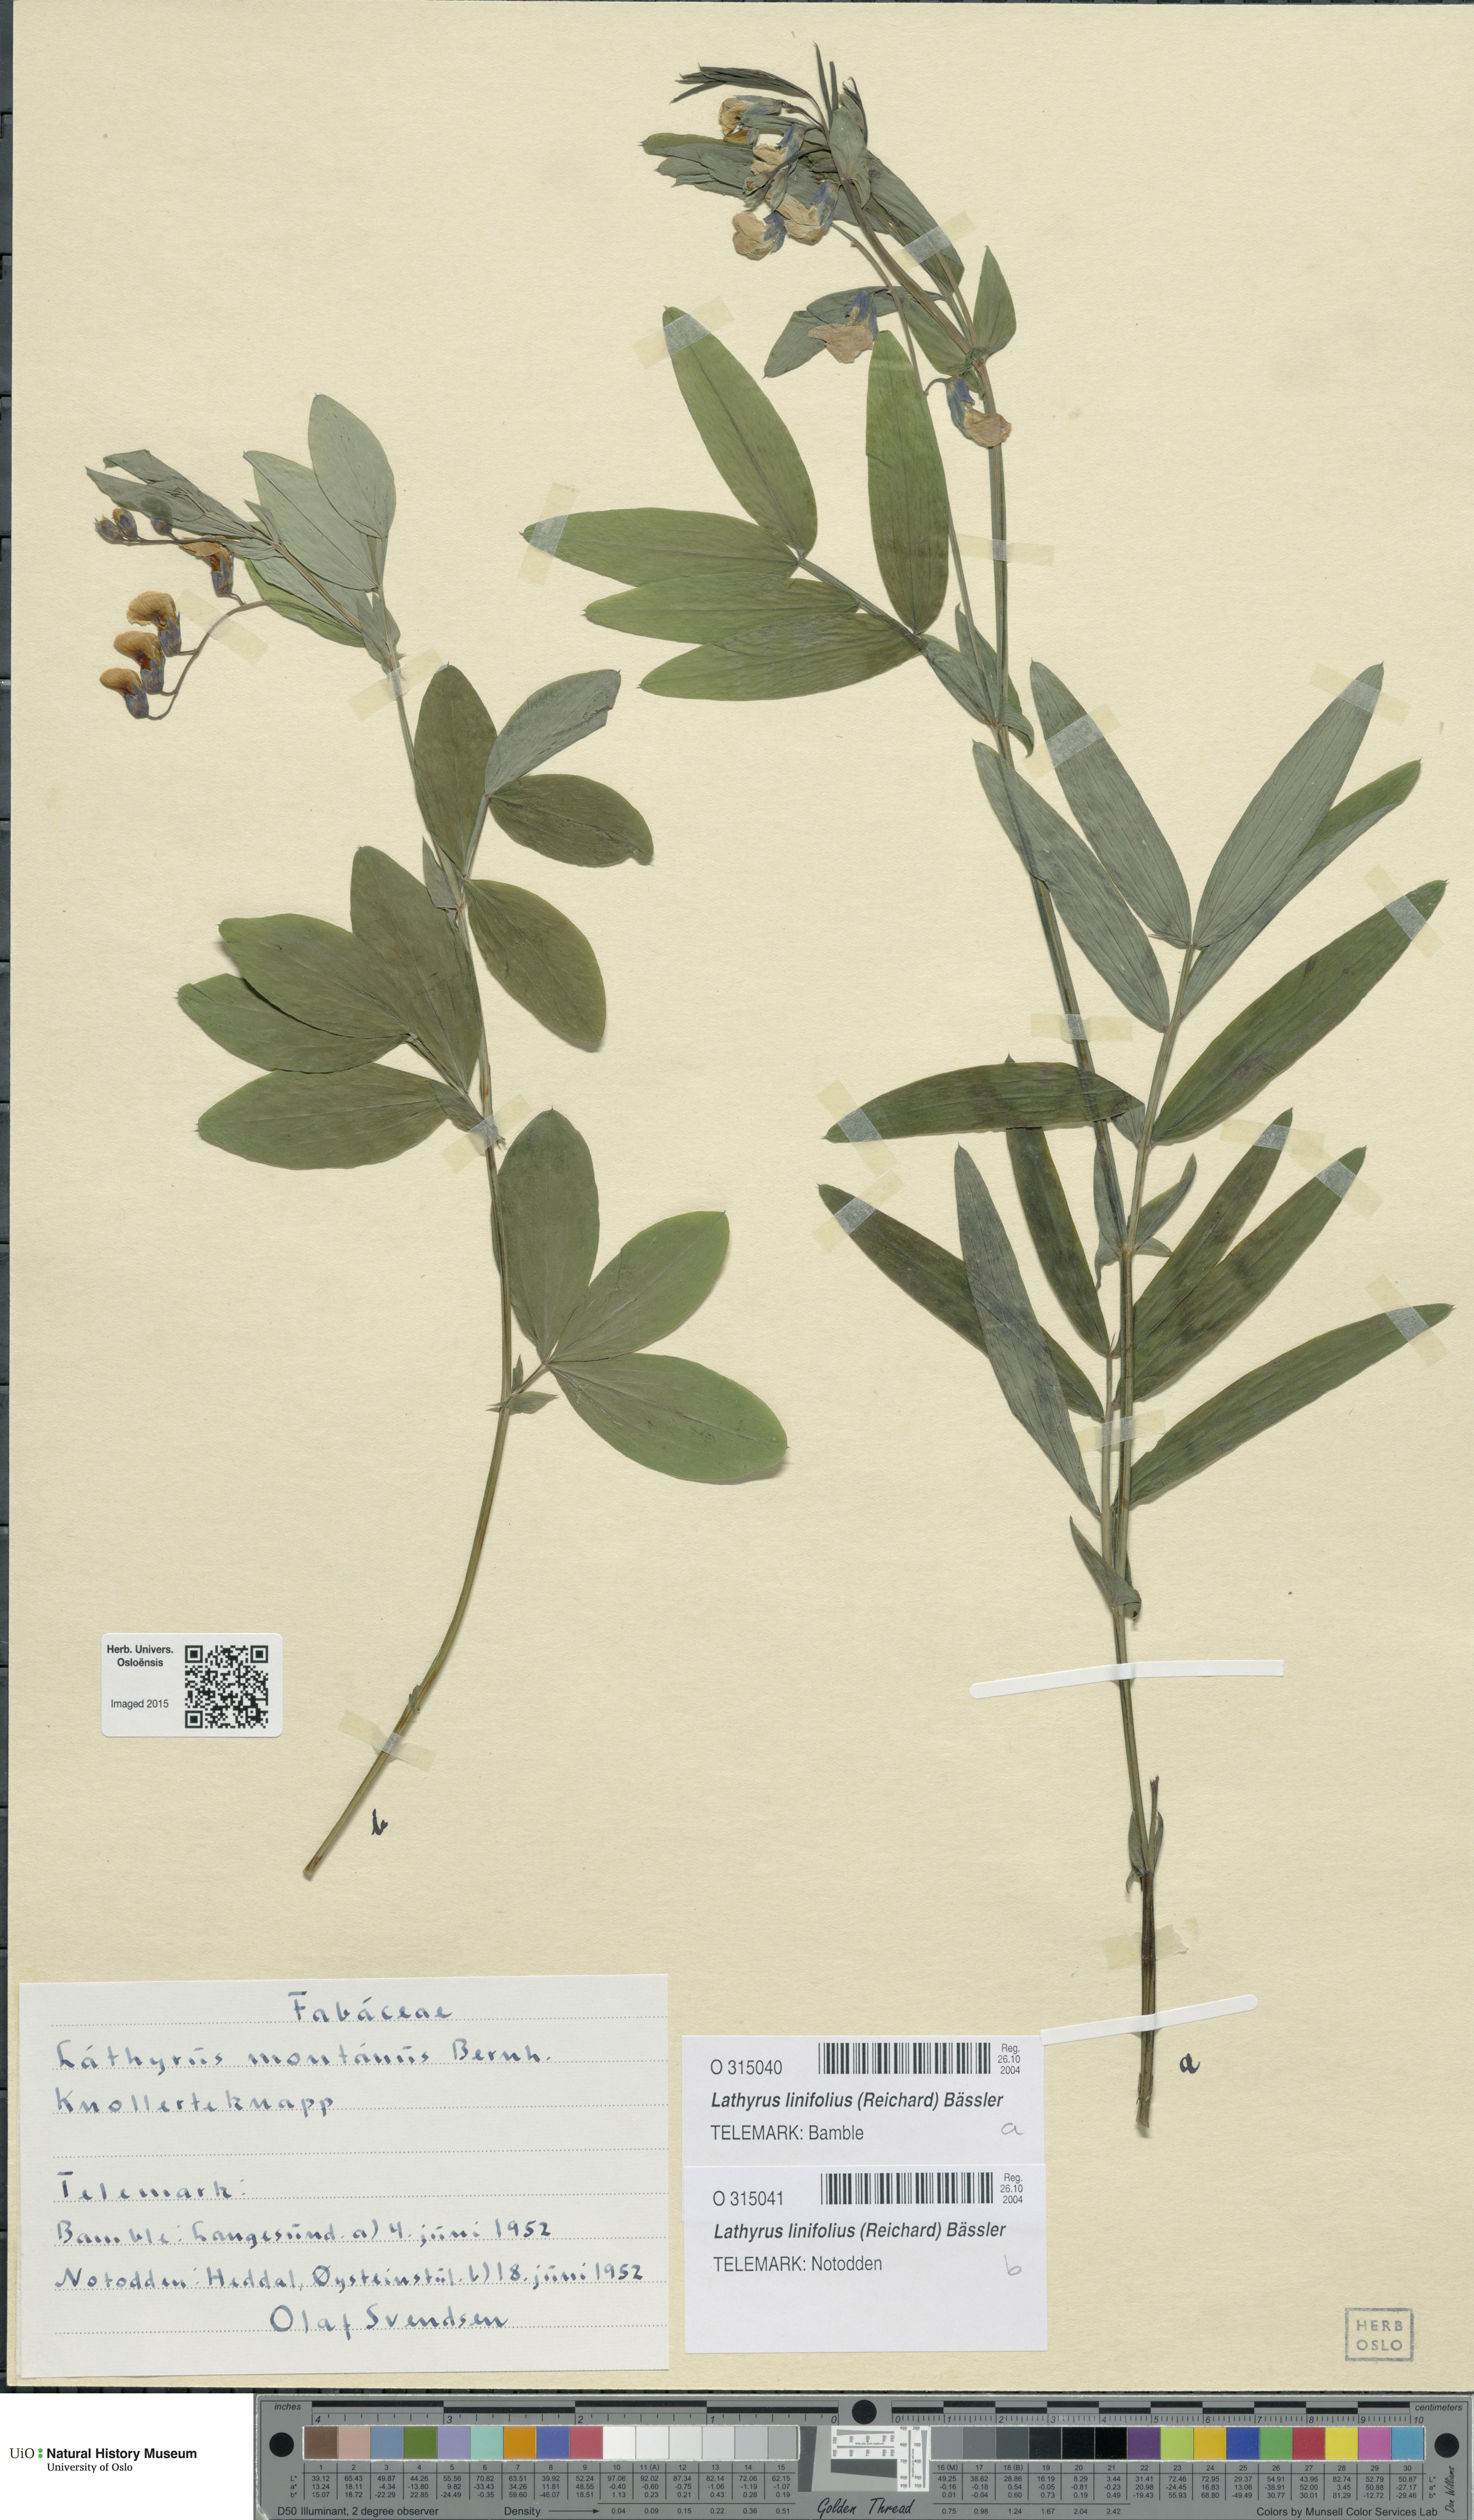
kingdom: Plantae
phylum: Tracheophyta
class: Magnoliopsida
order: Fabales
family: Fabaceae
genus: Lathyrus
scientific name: Lathyrus linifolius
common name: Bitter-vetch
